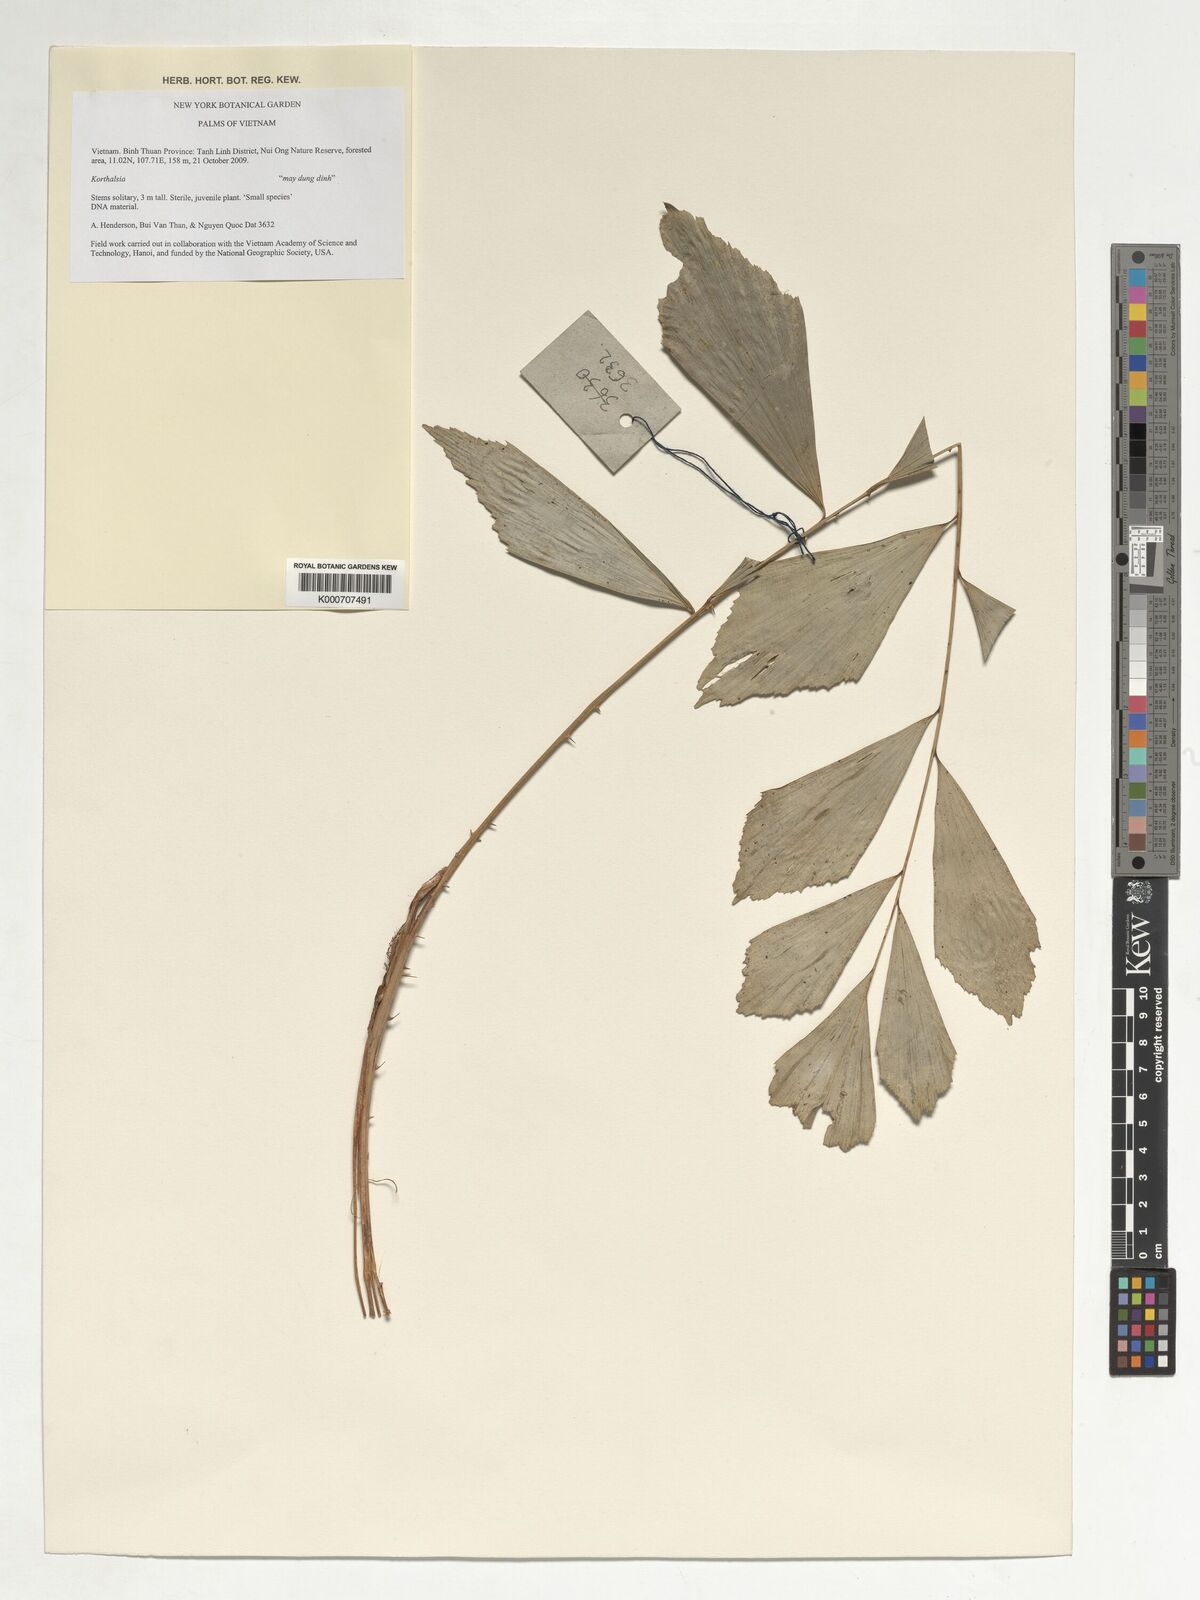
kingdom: Plantae
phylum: Tracheophyta
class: Liliopsida
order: Arecales
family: Arecaceae
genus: Korthalsia
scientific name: Korthalsia minor
